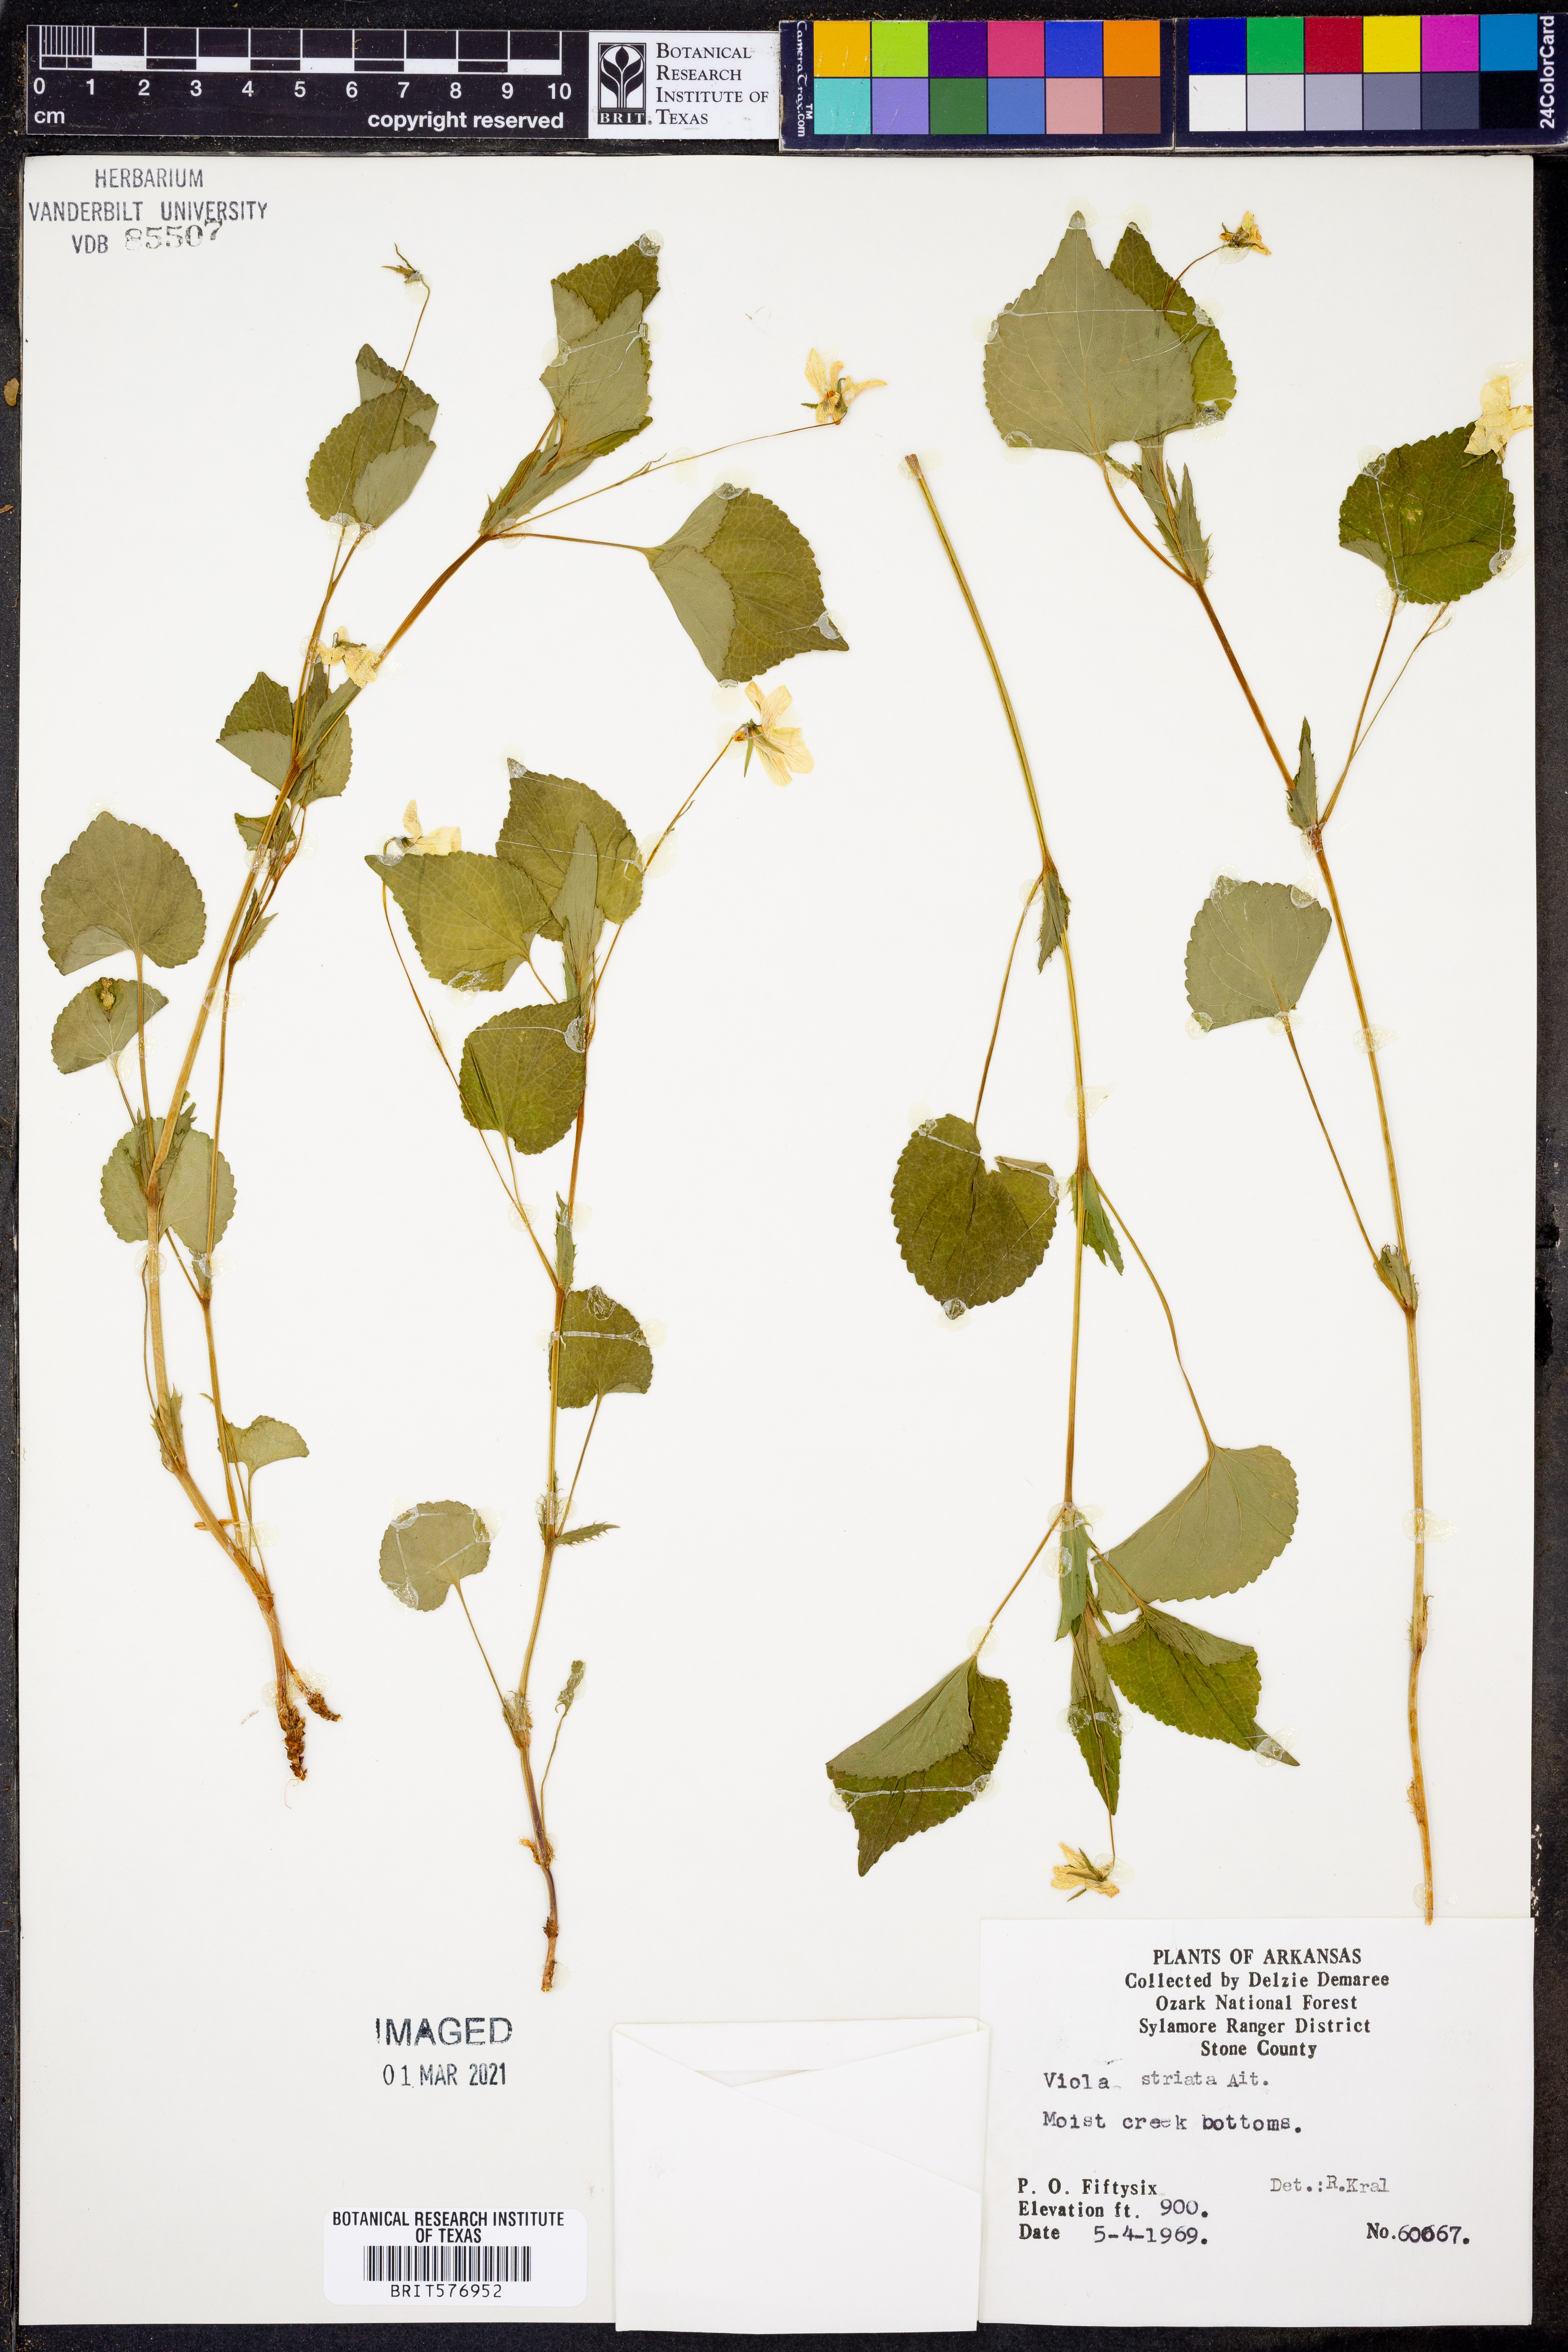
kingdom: Plantae
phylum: Tracheophyta
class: Magnoliopsida
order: Malpighiales
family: Violaceae
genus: Viola
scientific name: Viola striata
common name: Cream violet
